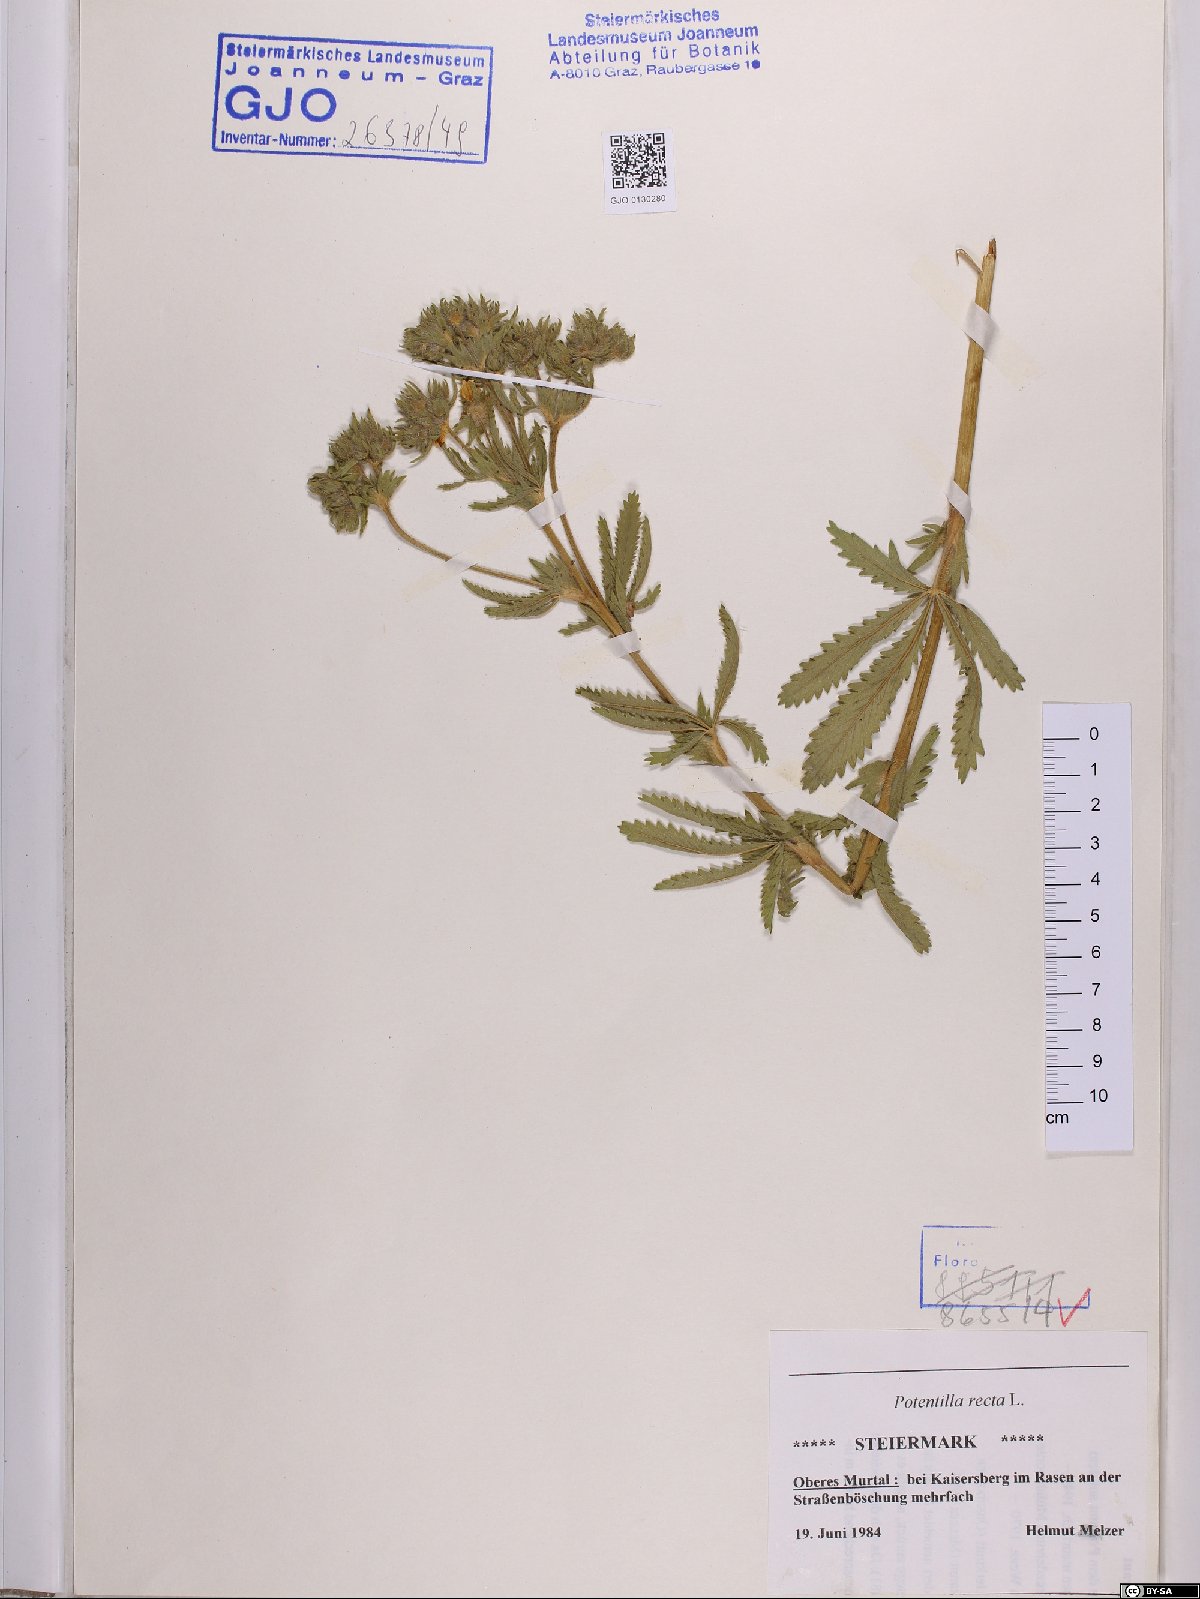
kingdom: Plantae
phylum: Tracheophyta
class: Magnoliopsida
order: Rosales
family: Rosaceae
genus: Potentilla
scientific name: Potentilla recta
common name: Sulphur cinquefoil
